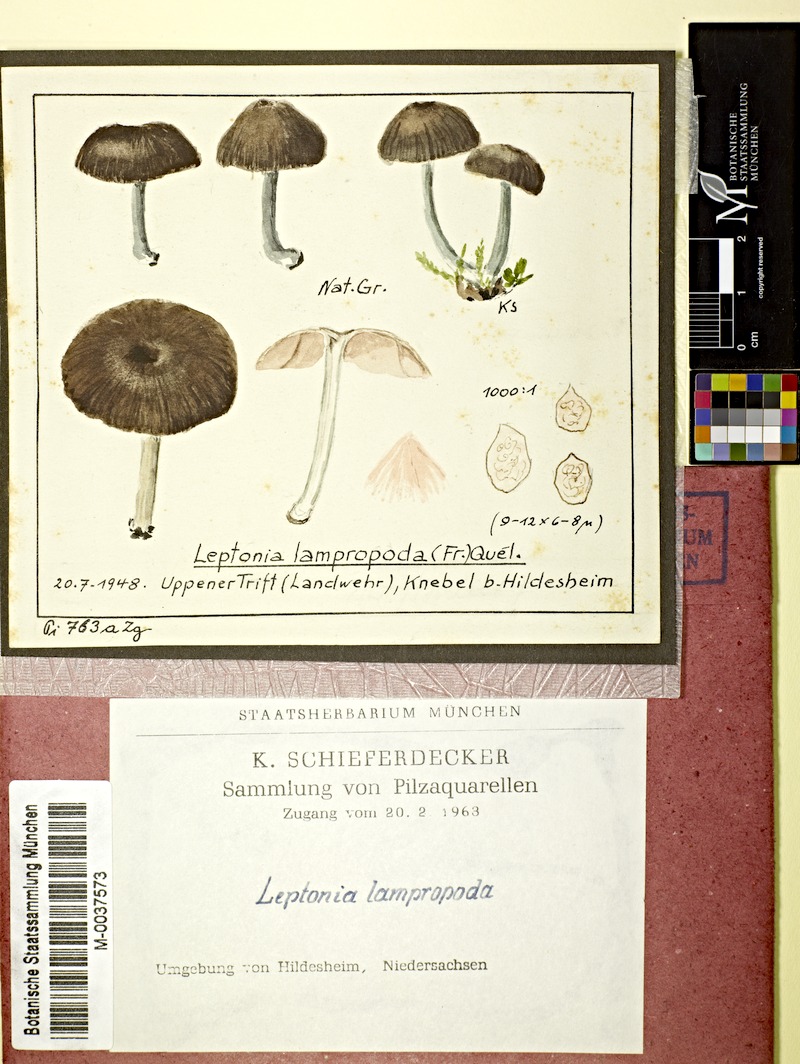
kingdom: Fungi
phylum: Basidiomycota
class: Agaricomycetes
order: Agaricales
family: Entolomataceae
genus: Entoloma
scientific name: Entoloma corvinum
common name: Crow pinkgill
